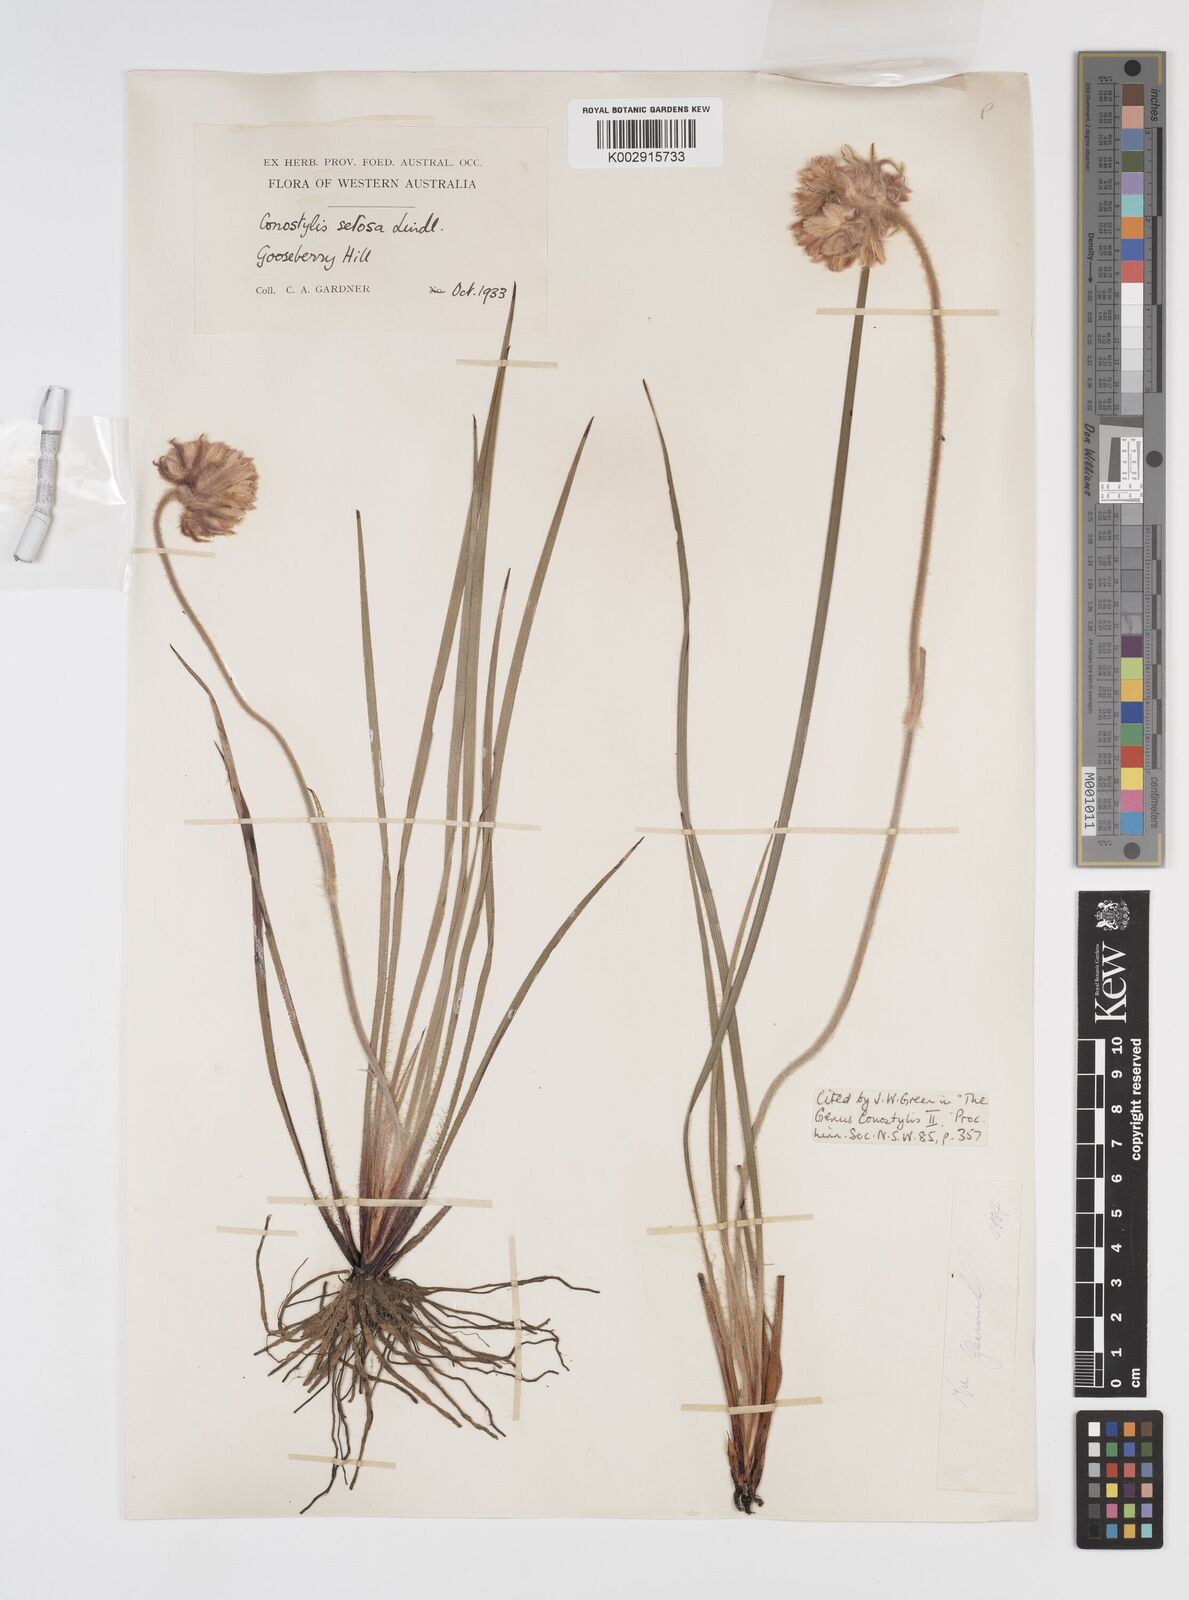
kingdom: Plantae
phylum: Tracheophyta
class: Liliopsida
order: Commelinales
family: Haemodoraceae
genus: Conostylis
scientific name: Conostylis setosa
